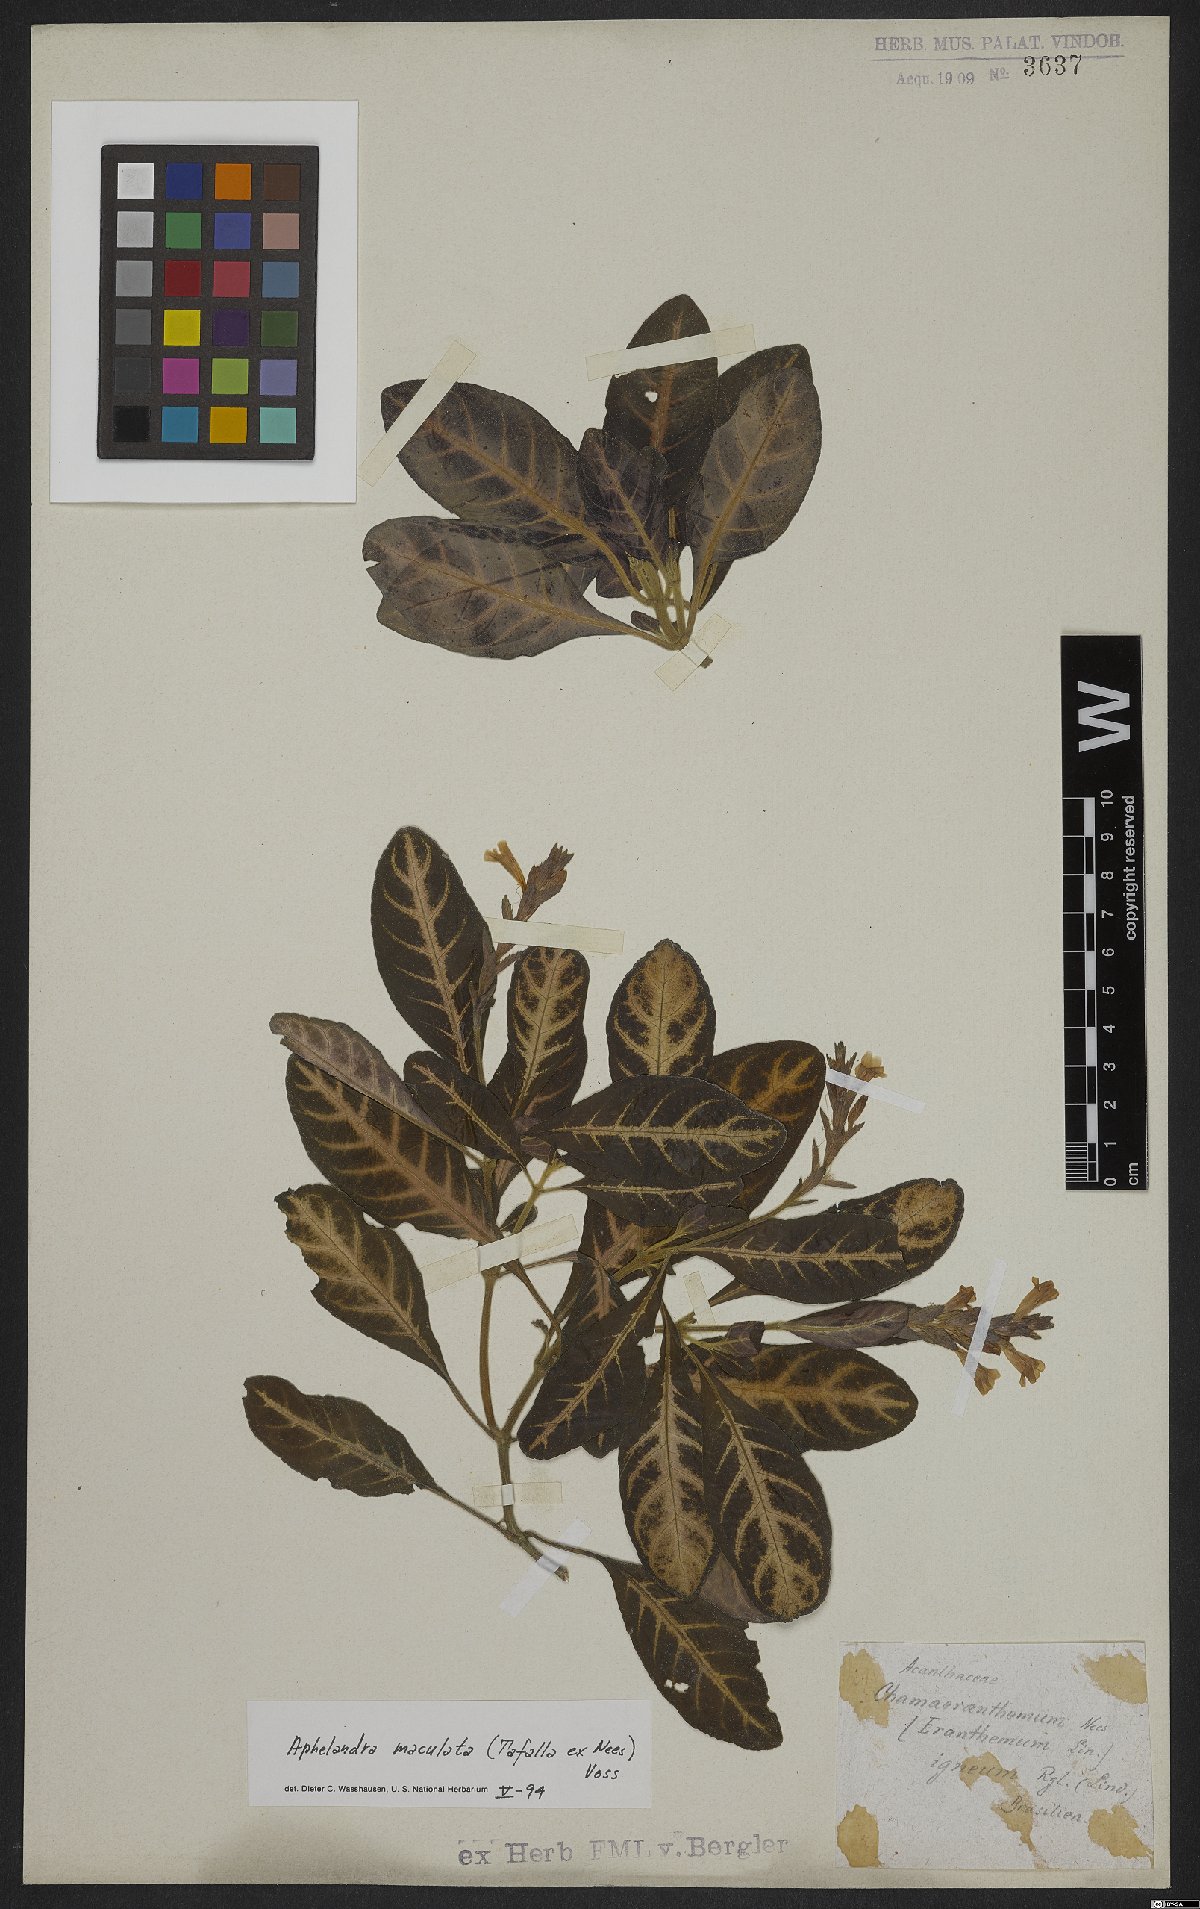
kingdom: Plantae
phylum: Tracheophyta
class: Magnoliopsida
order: Lamiales
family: Acanthaceae
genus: Aphelandra
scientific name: Aphelandra maculata
